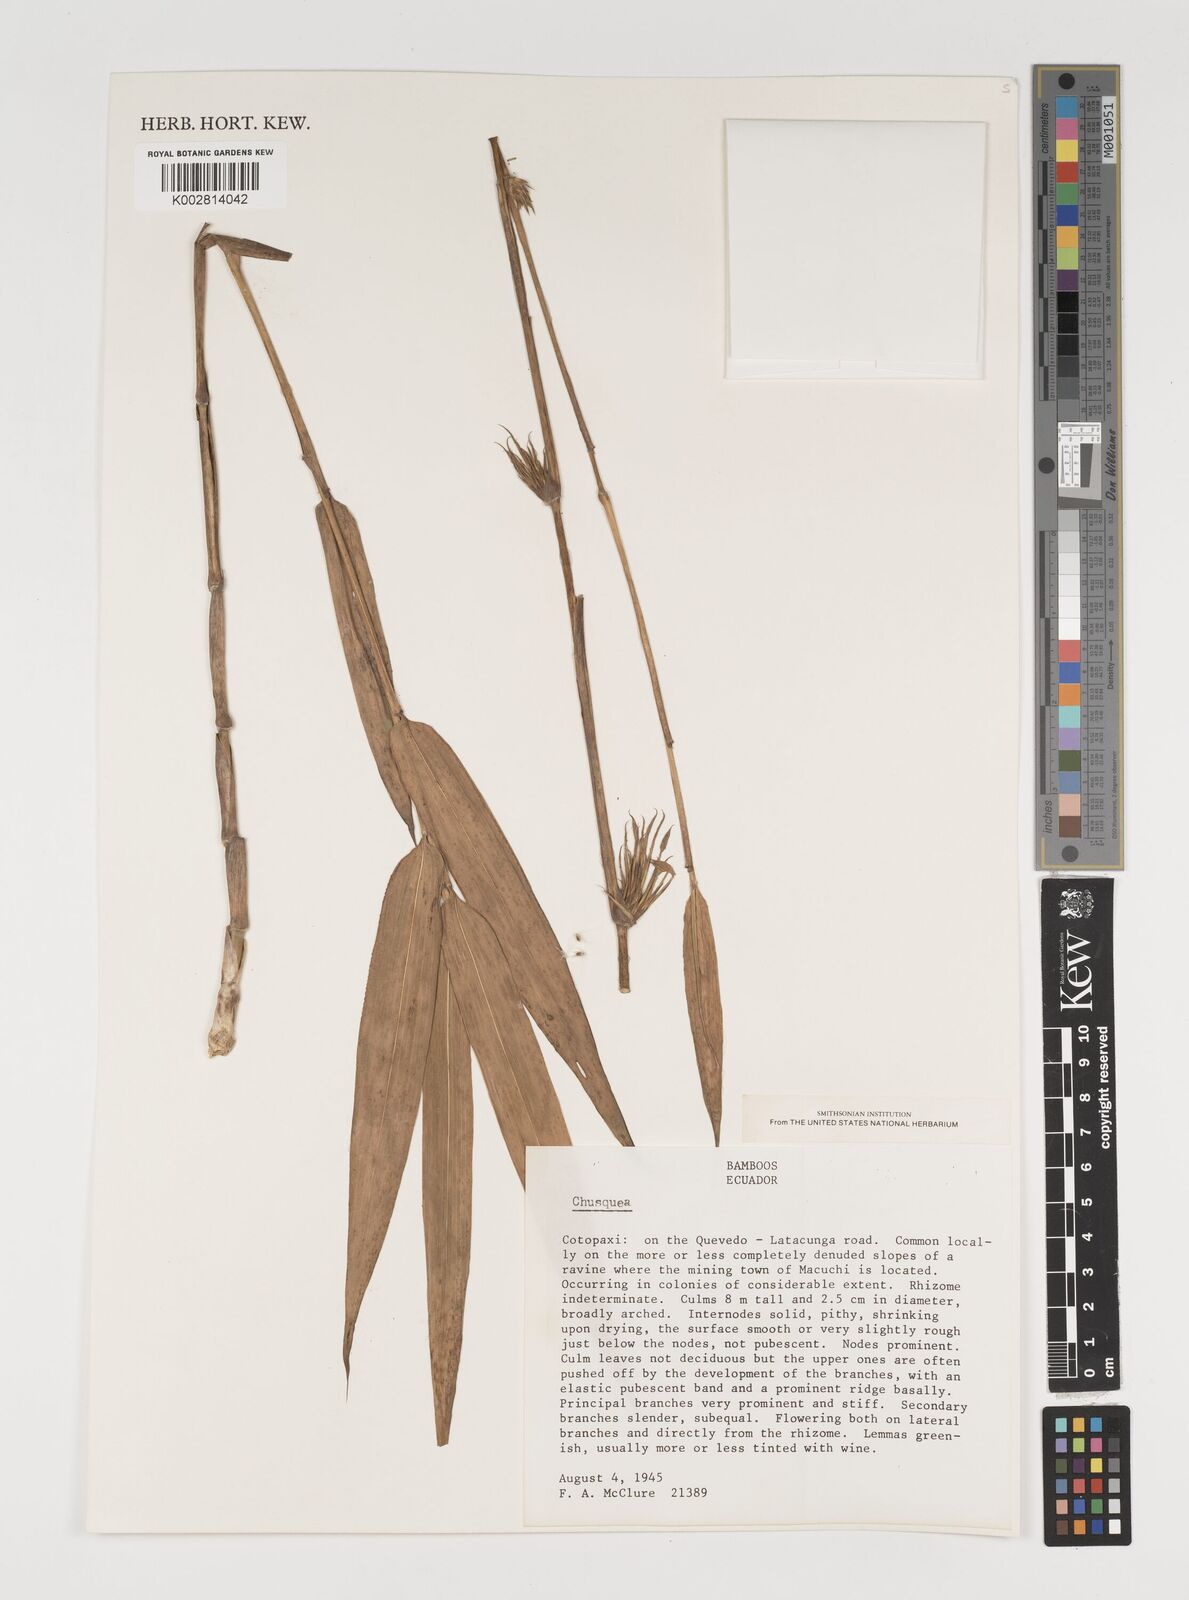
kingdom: Plantae
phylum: Tracheophyta
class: Liliopsida
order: Poales
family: Poaceae
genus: Chusquea
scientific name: Chusquea
